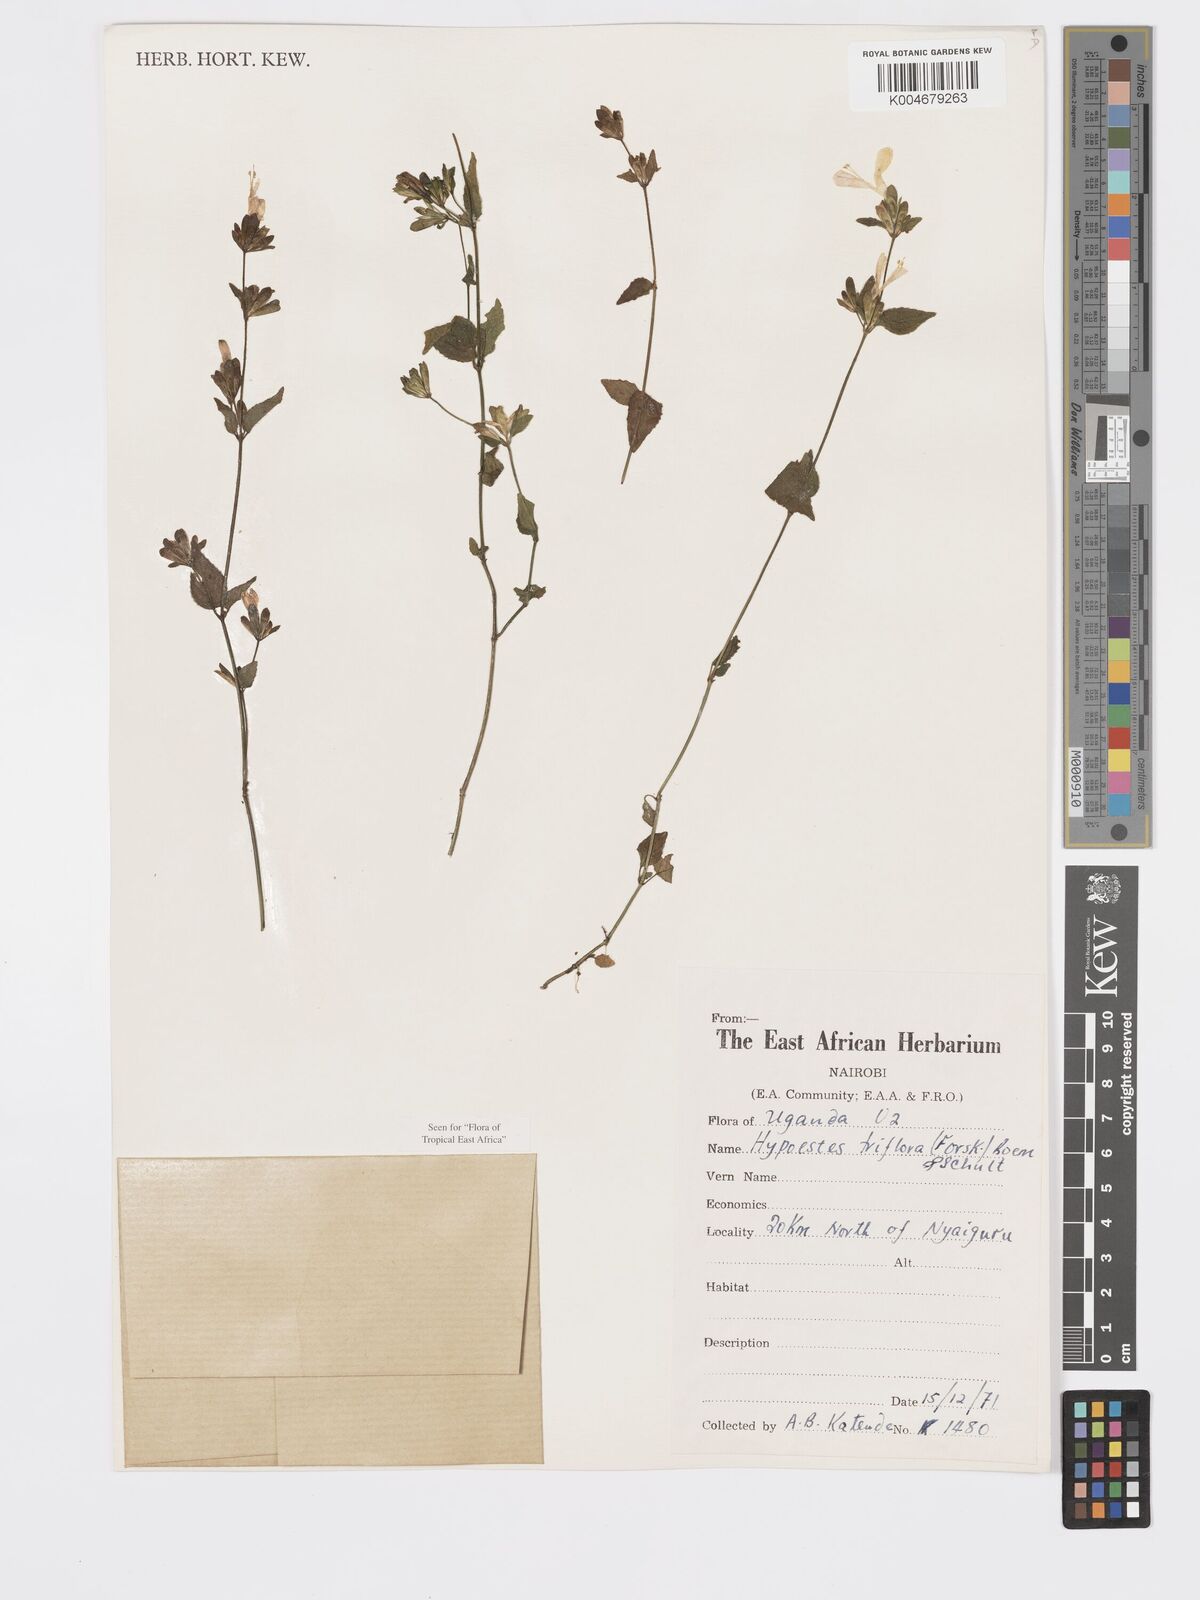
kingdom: Plantae
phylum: Tracheophyta
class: Magnoliopsida
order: Lamiales
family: Acanthaceae
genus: Hypoestes
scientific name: Hypoestes triflora
